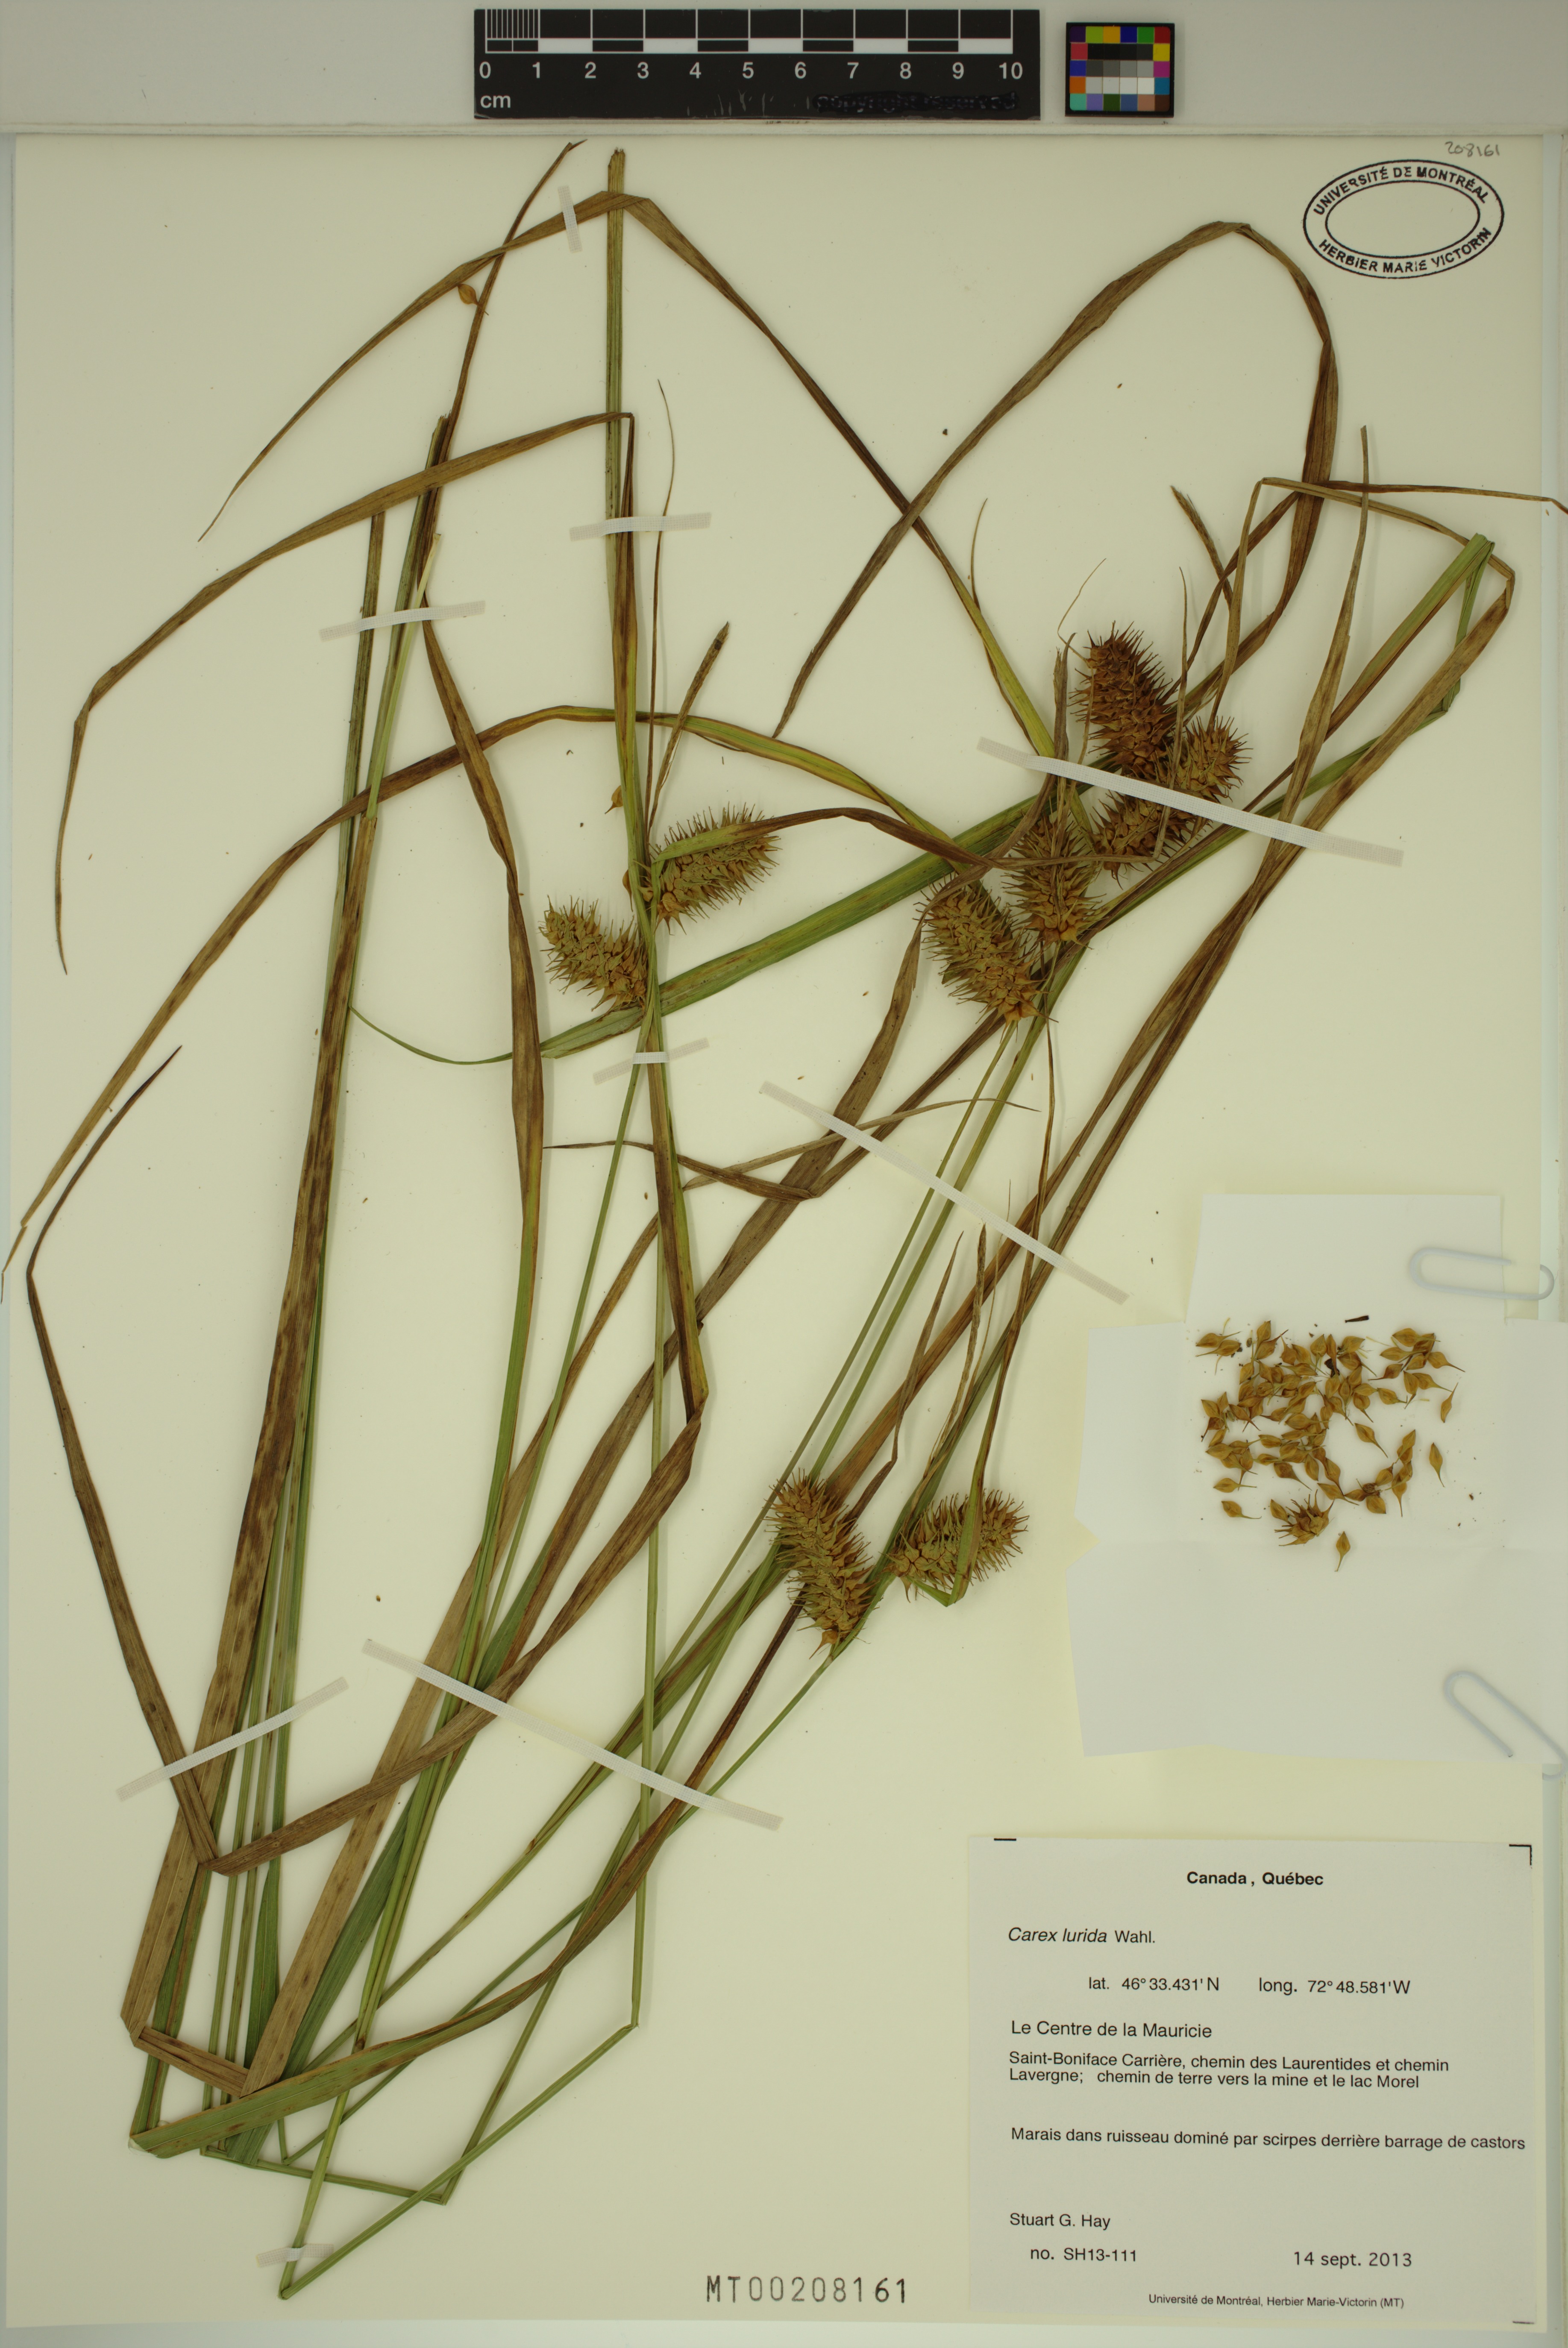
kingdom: Plantae
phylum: Tracheophyta
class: Liliopsida
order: Poales
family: Cyperaceae
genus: Carex
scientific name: Carex lurida
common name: Sallow sedge
